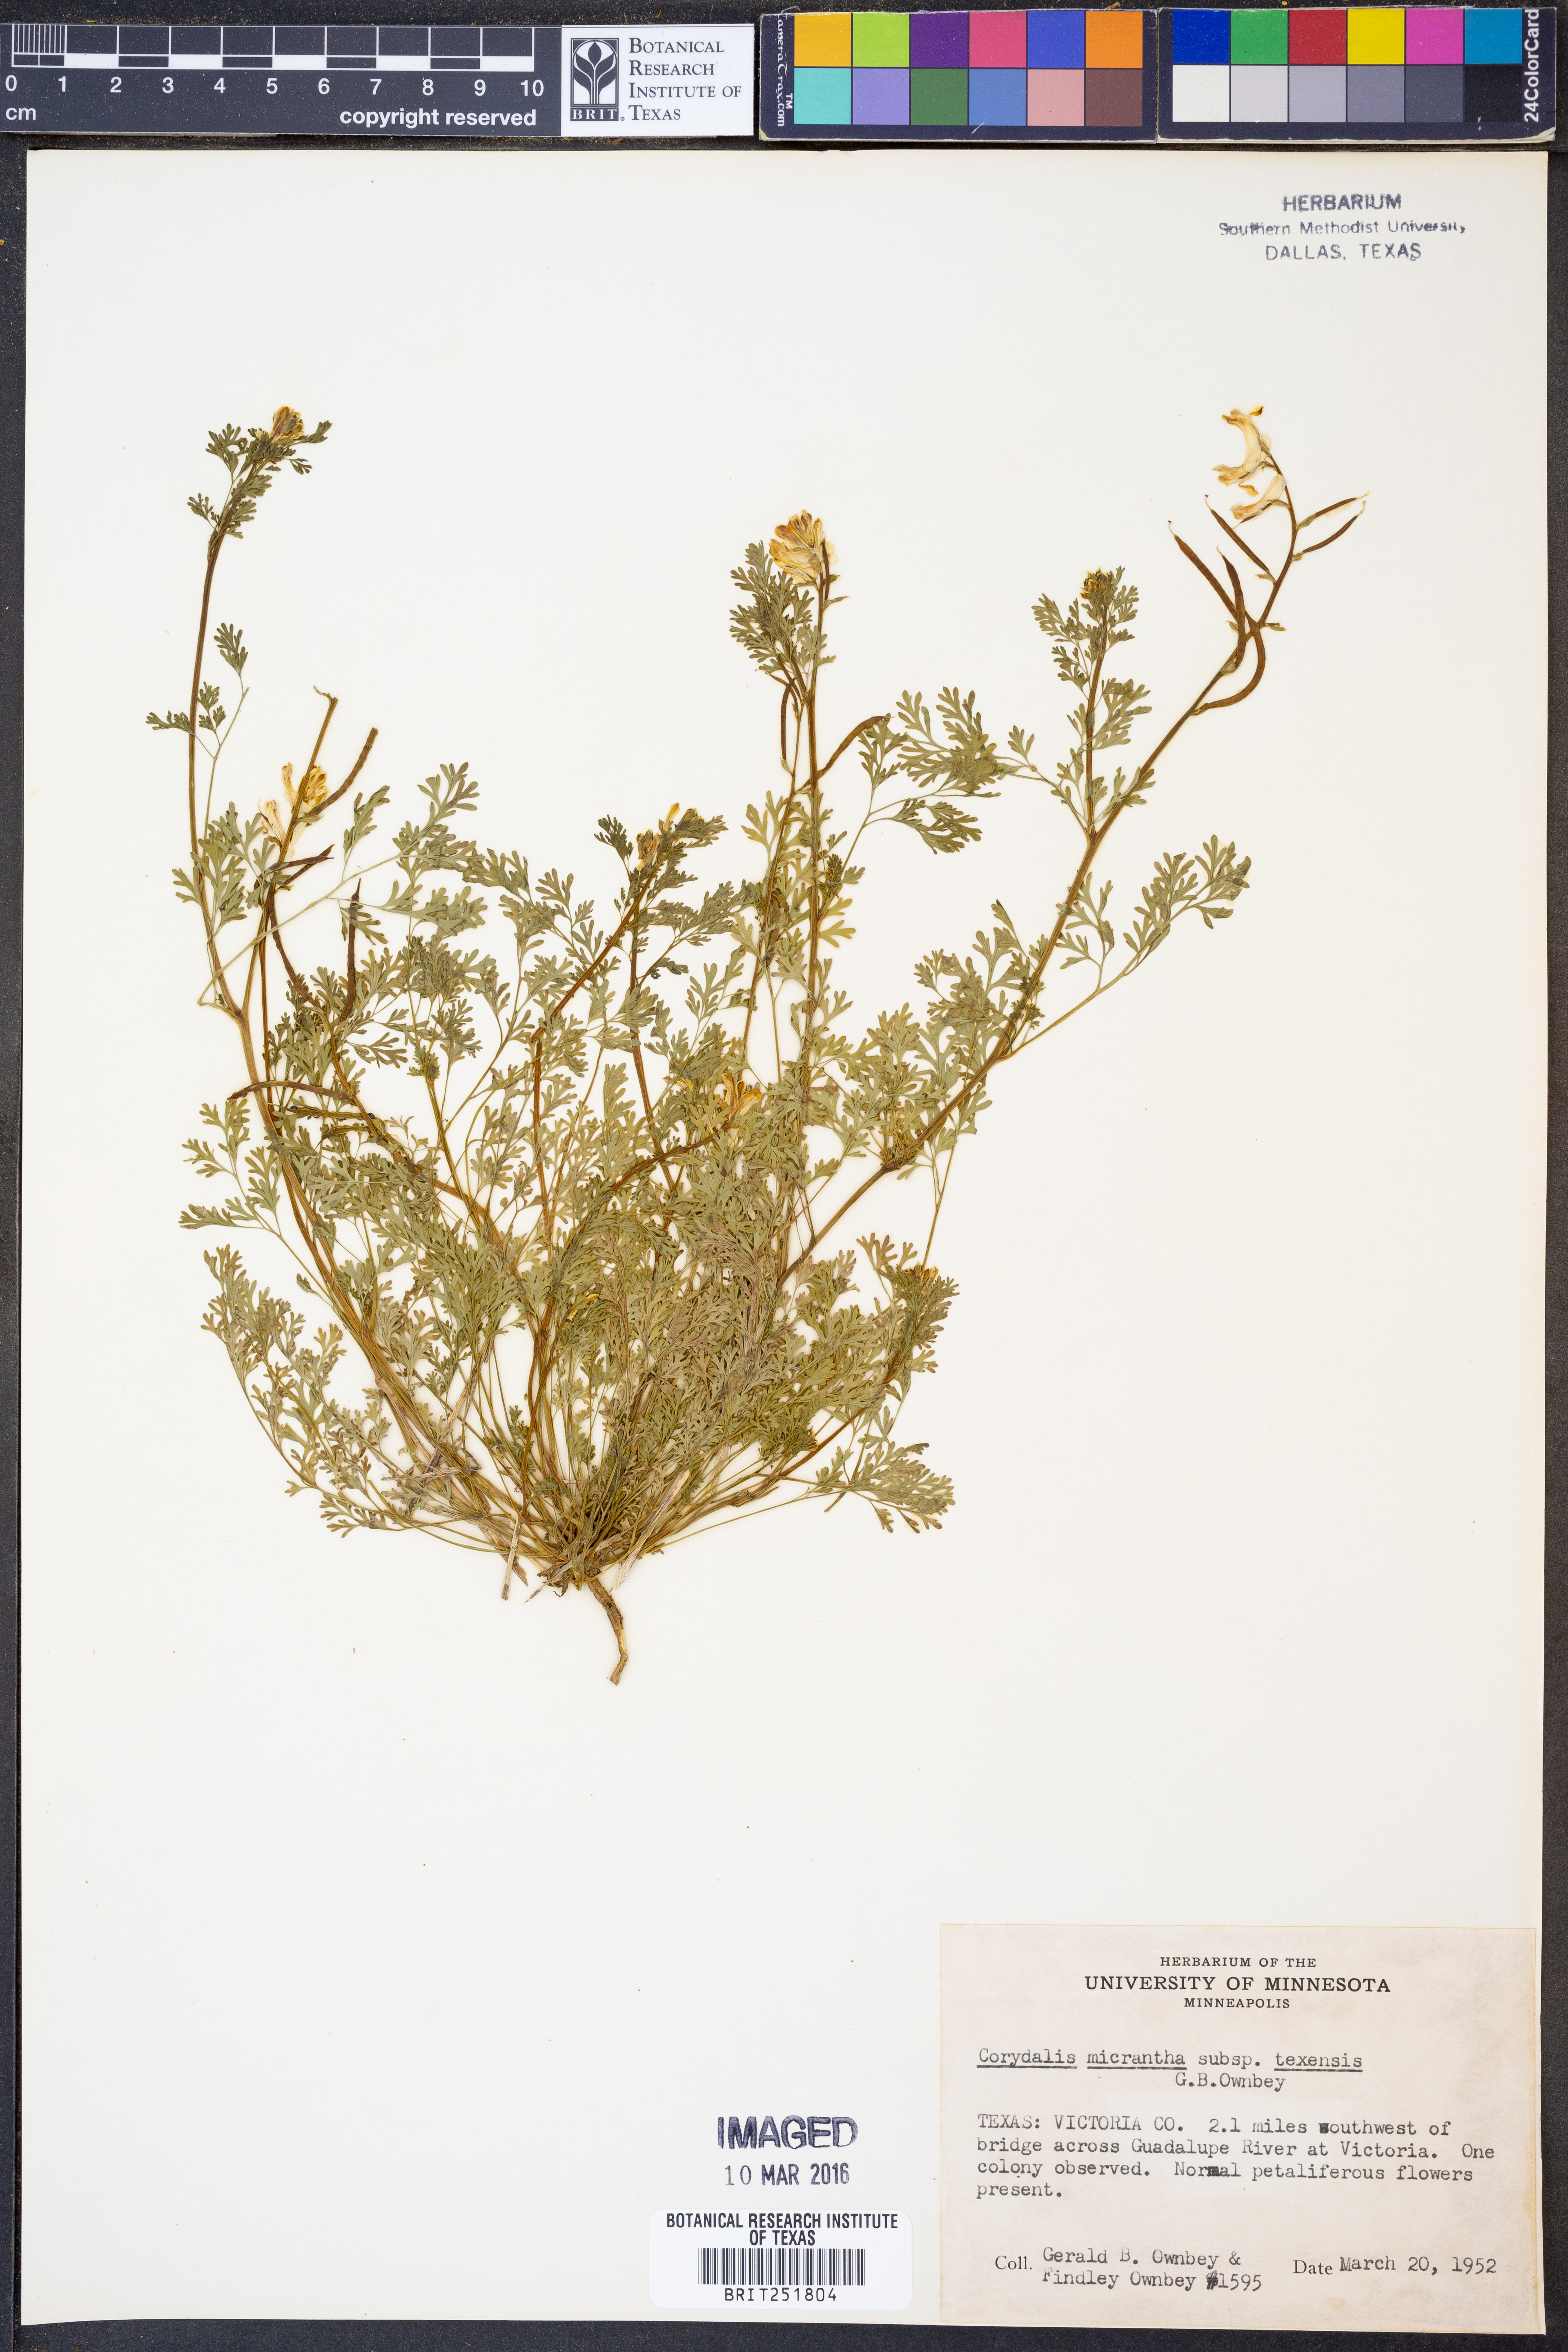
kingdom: Plantae
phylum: Tracheophyta
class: Magnoliopsida
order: Ranunculales
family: Papaveraceae
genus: Corydalis
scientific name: Corydalis micrantha
